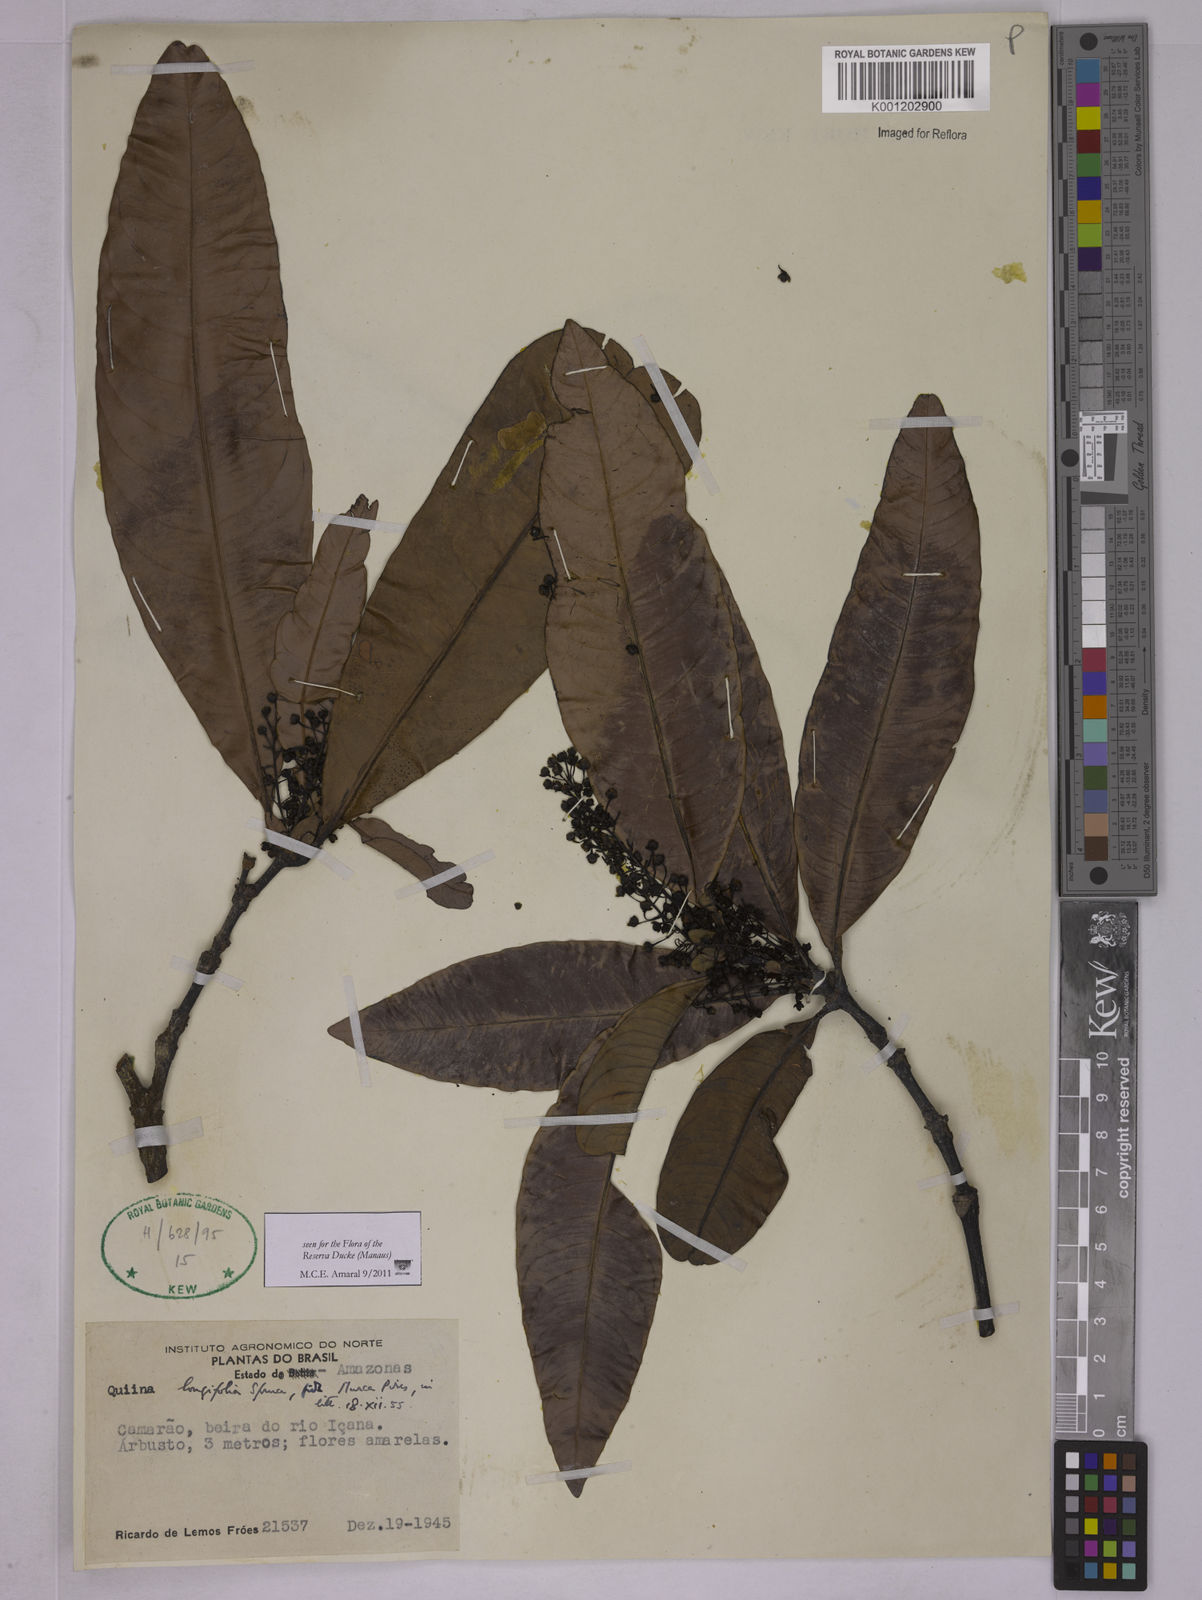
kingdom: Plantae
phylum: Tracheophyta
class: Magnoliopsida
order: Malpighiales
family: Quiinaceae
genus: Quiina
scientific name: Quiina florida
